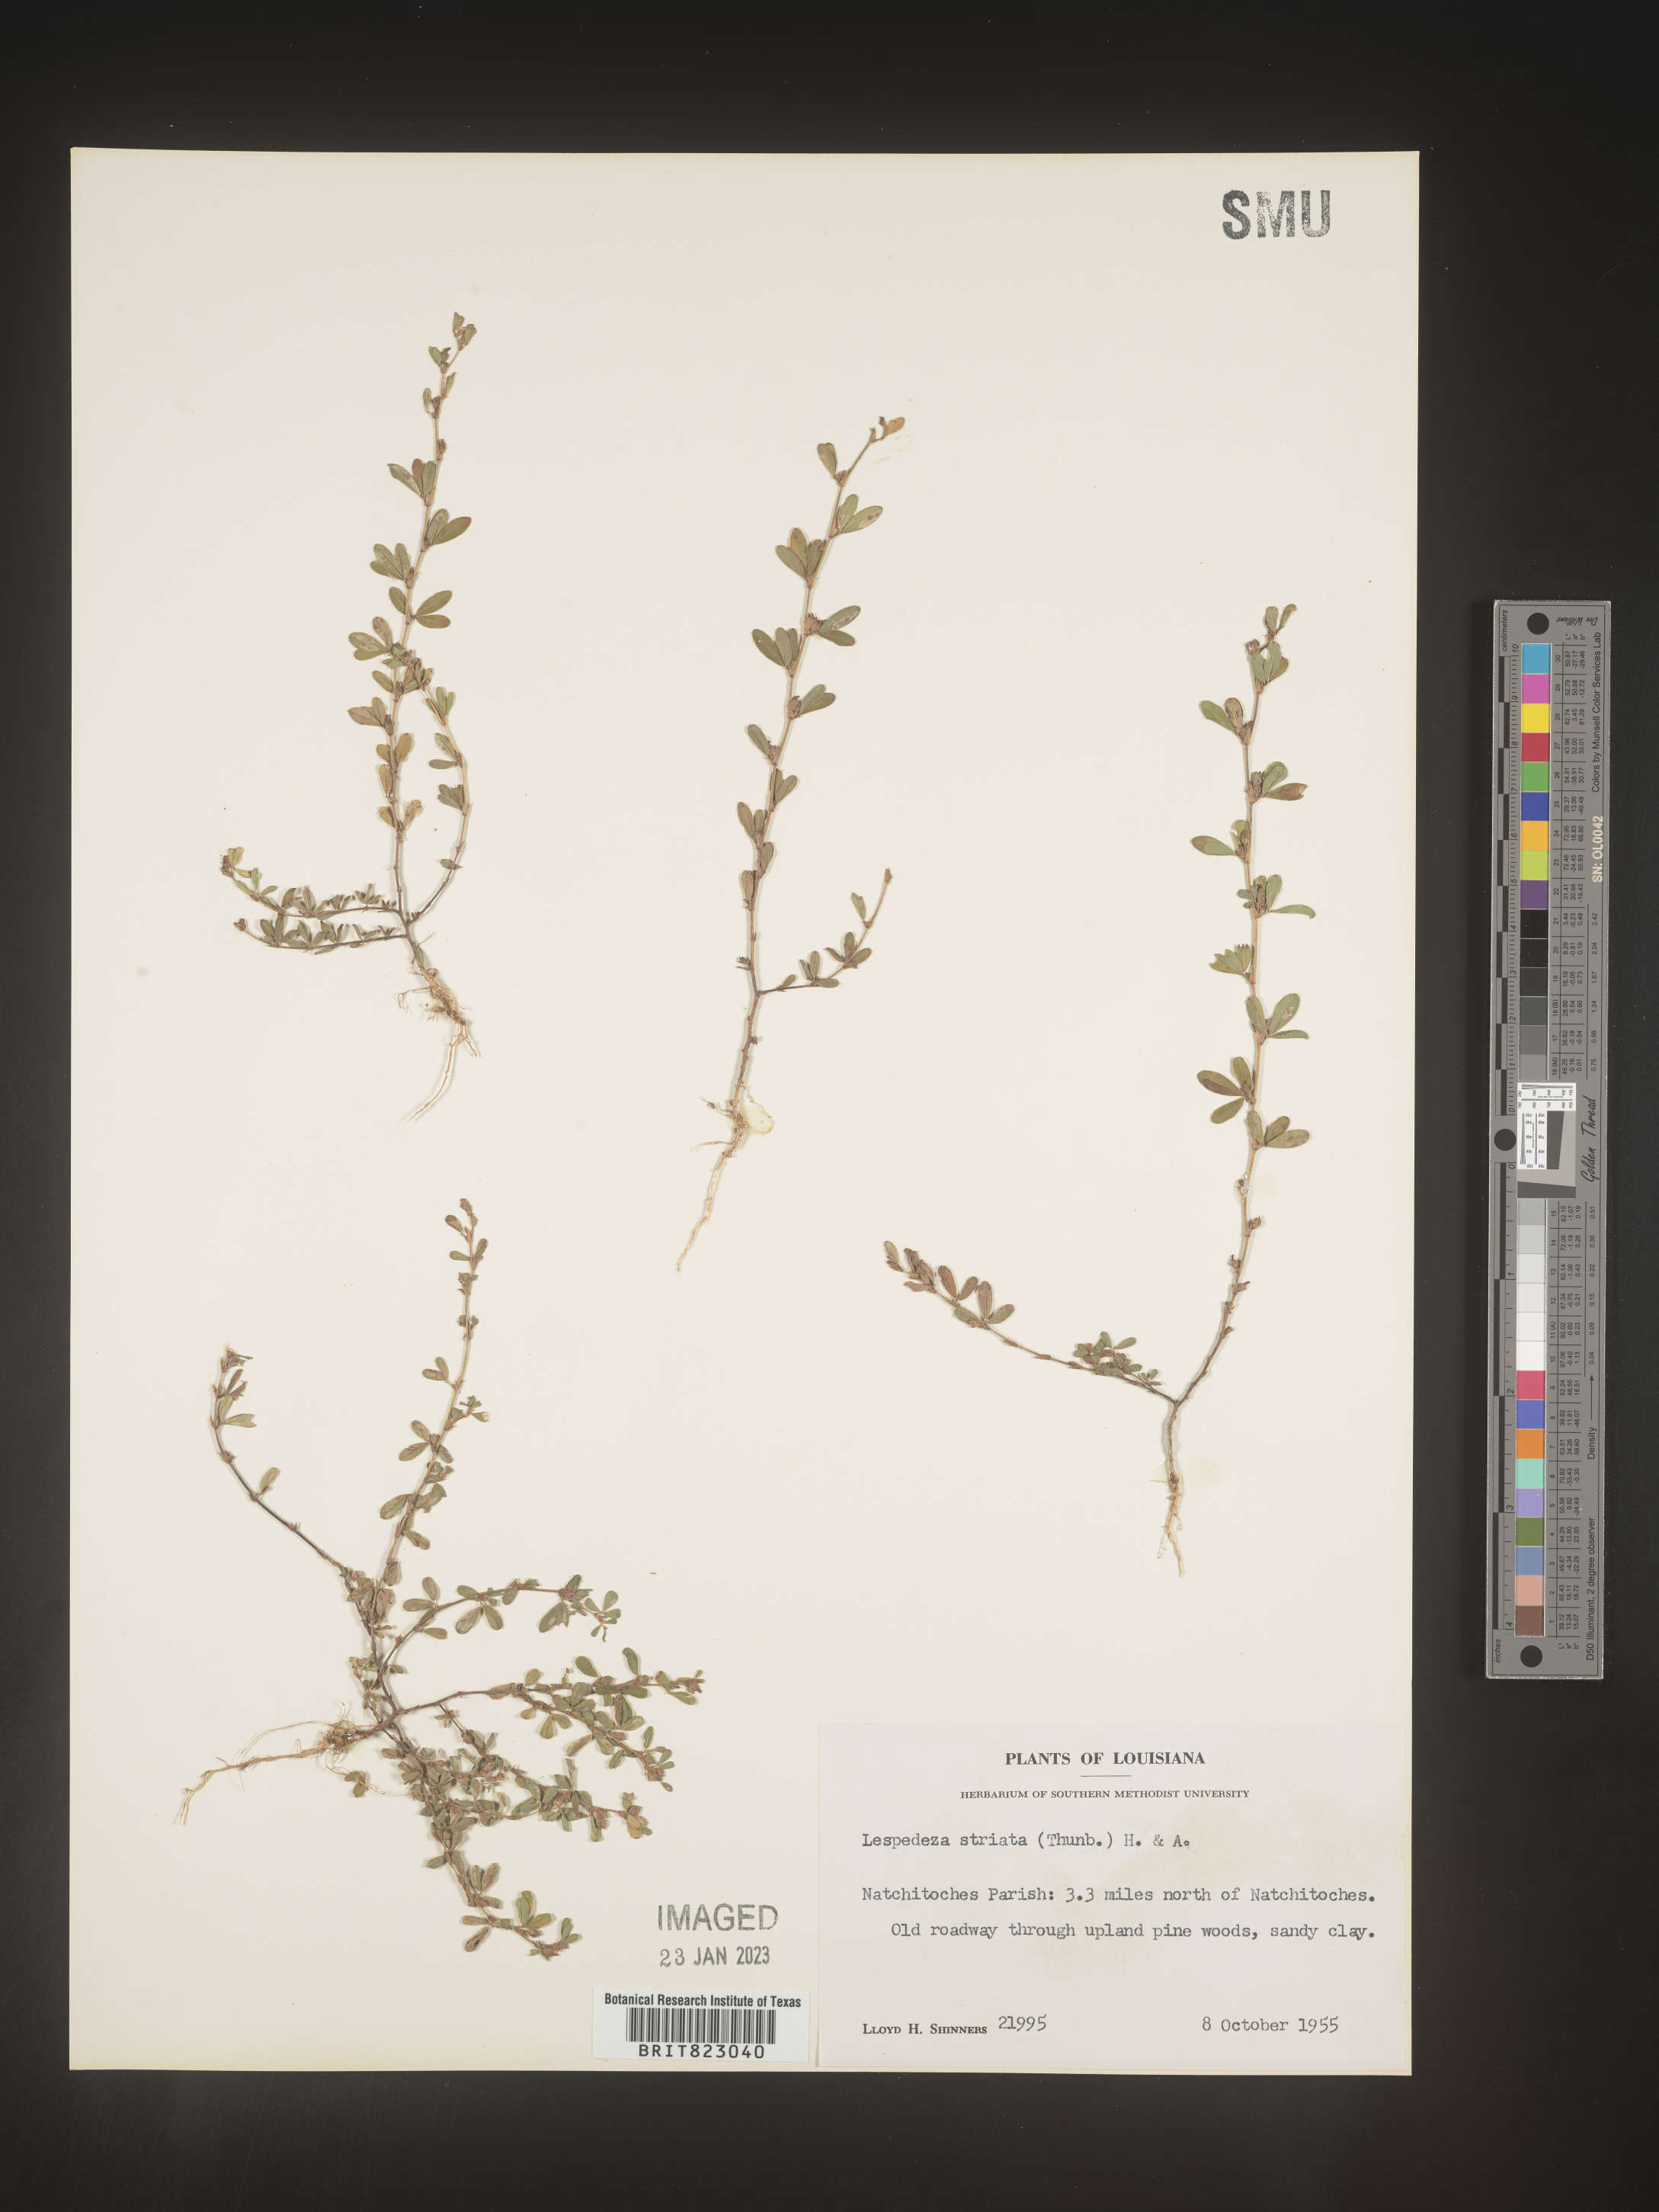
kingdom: Plantae
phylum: Tracheophyta
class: Magnoliopsida
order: Fabales
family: Fabaceae
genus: Kummerowia
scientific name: Kummerowia striata
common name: Japanese clover
